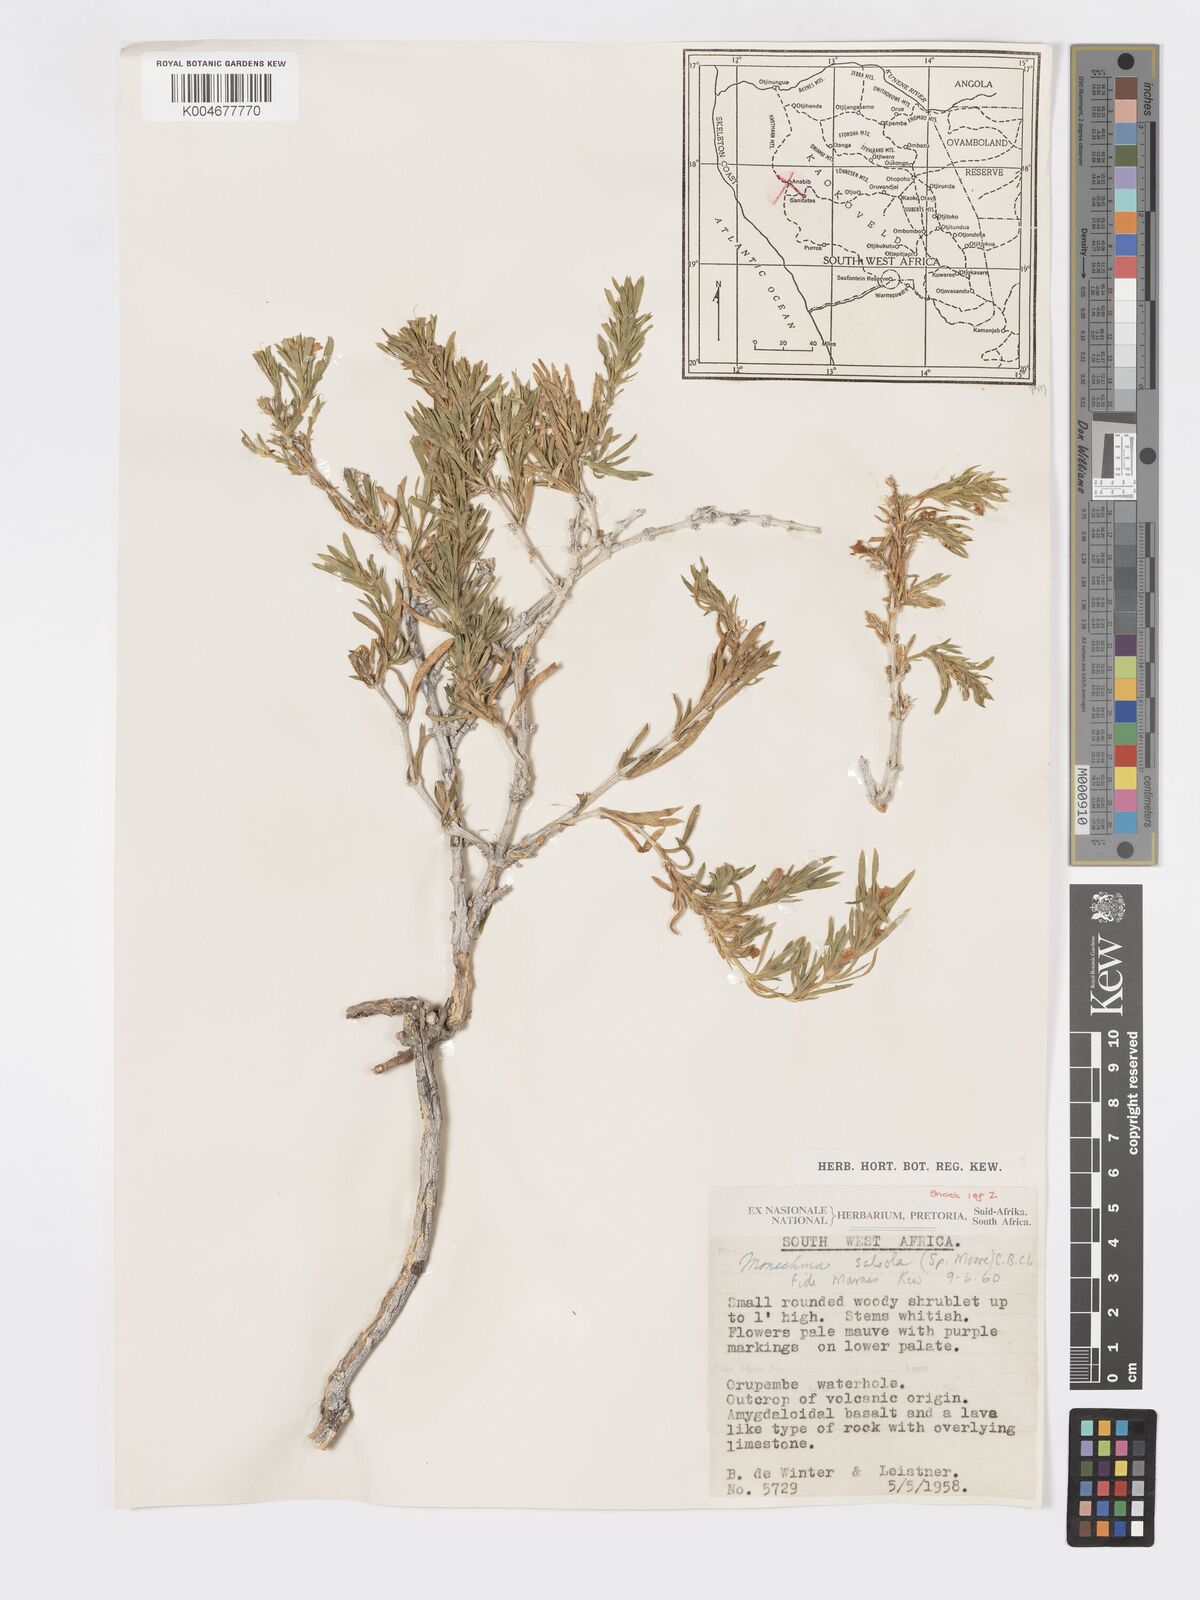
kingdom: Plantae
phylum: Tracheophyta
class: Magnoliopsida
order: Lamiales
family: Acanthaceae
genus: Pogonospermum
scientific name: Pogonospermum
